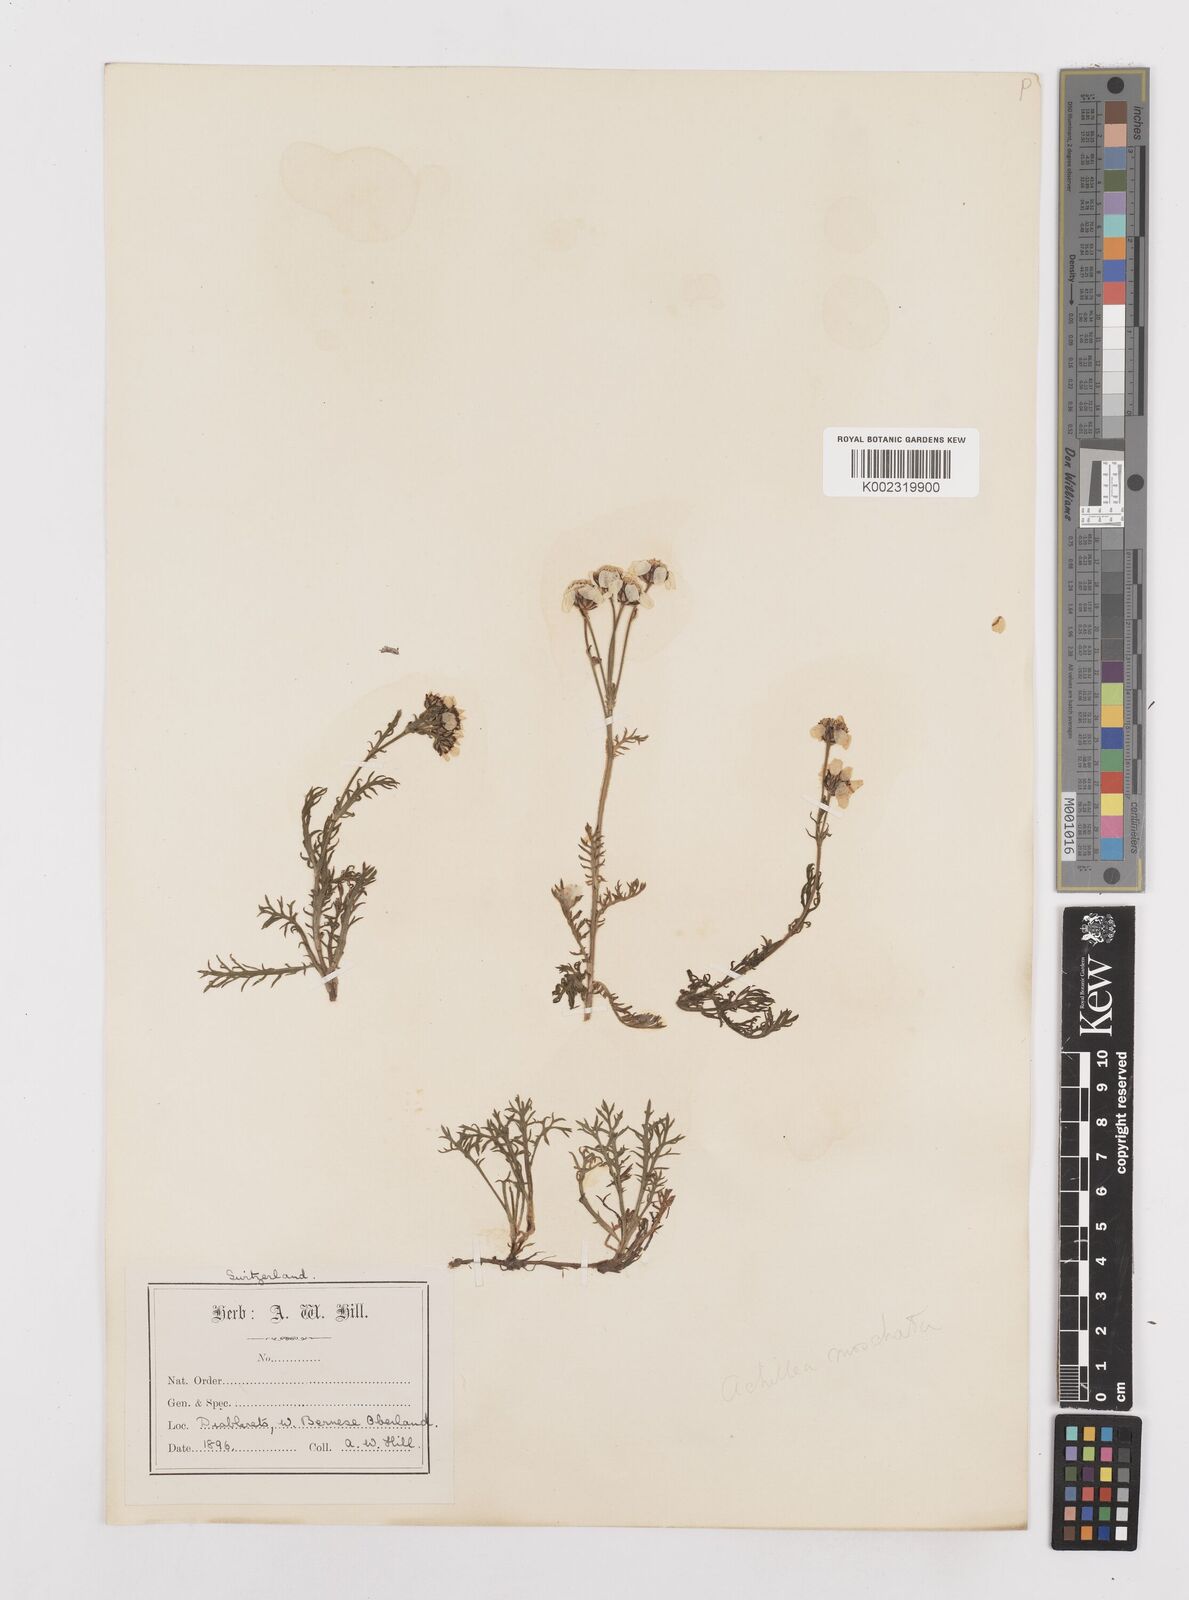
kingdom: Plantae
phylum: Tracheophyta
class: Magnoliopsida
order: Asterales
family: Asteraceae
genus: Achillea
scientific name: Achillea erba-rotta
